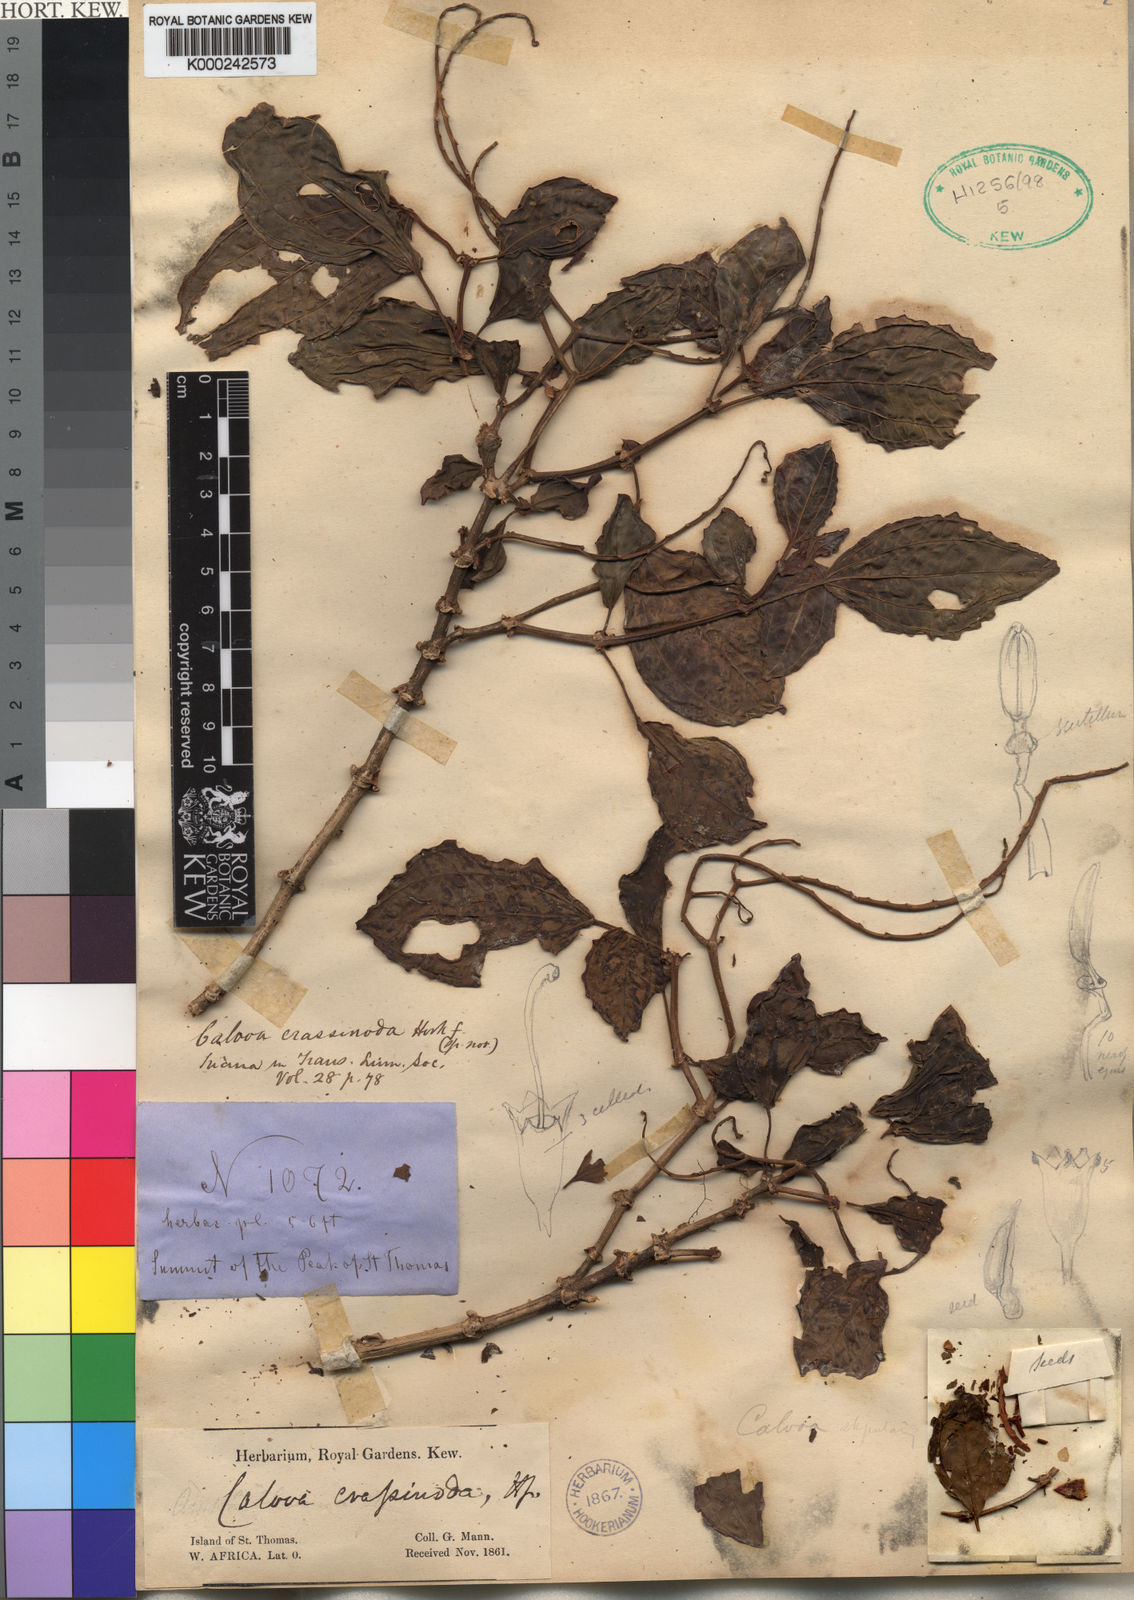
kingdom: Plantae
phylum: Tracheophyta
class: Magnoliopsida
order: Myrtales
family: Melastomataceae
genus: Calvoa
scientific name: Calvoa
